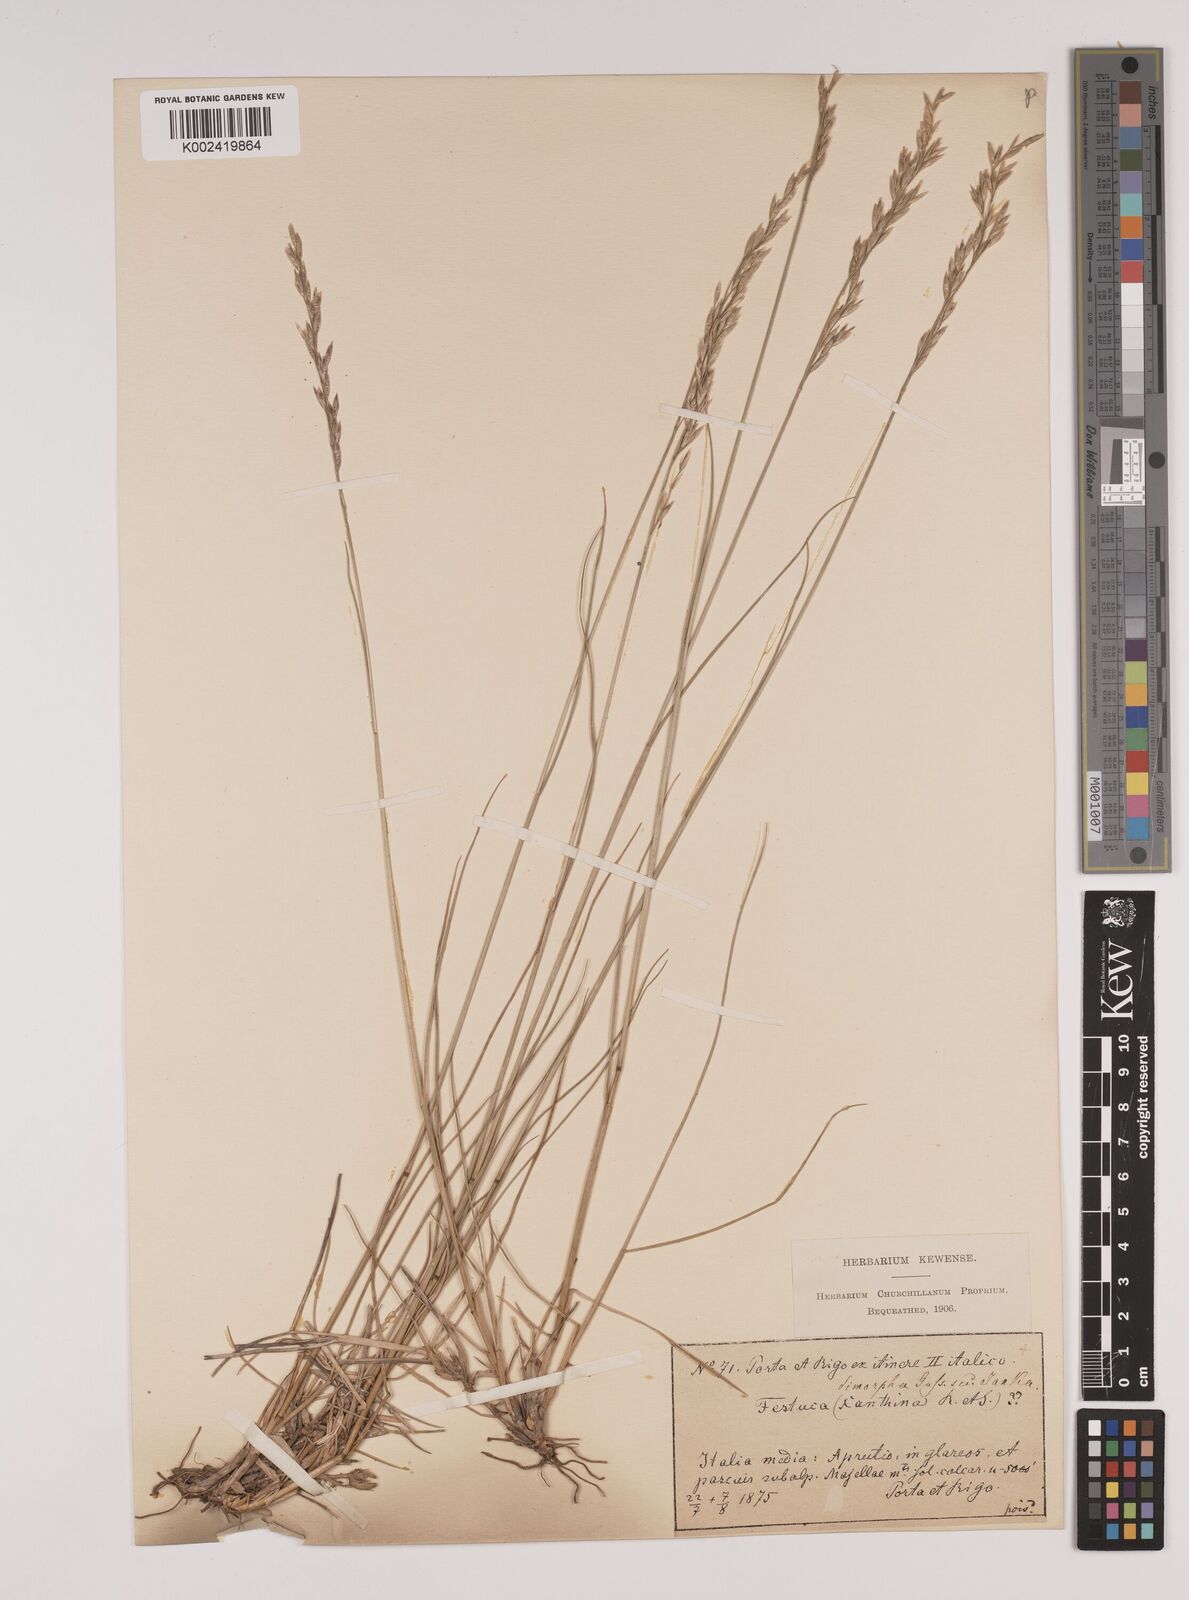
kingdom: Plantae
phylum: Tracheophyta
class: Liliopsida
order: Poales
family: Poaceae
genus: Festuca
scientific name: Festuca dimorpha
